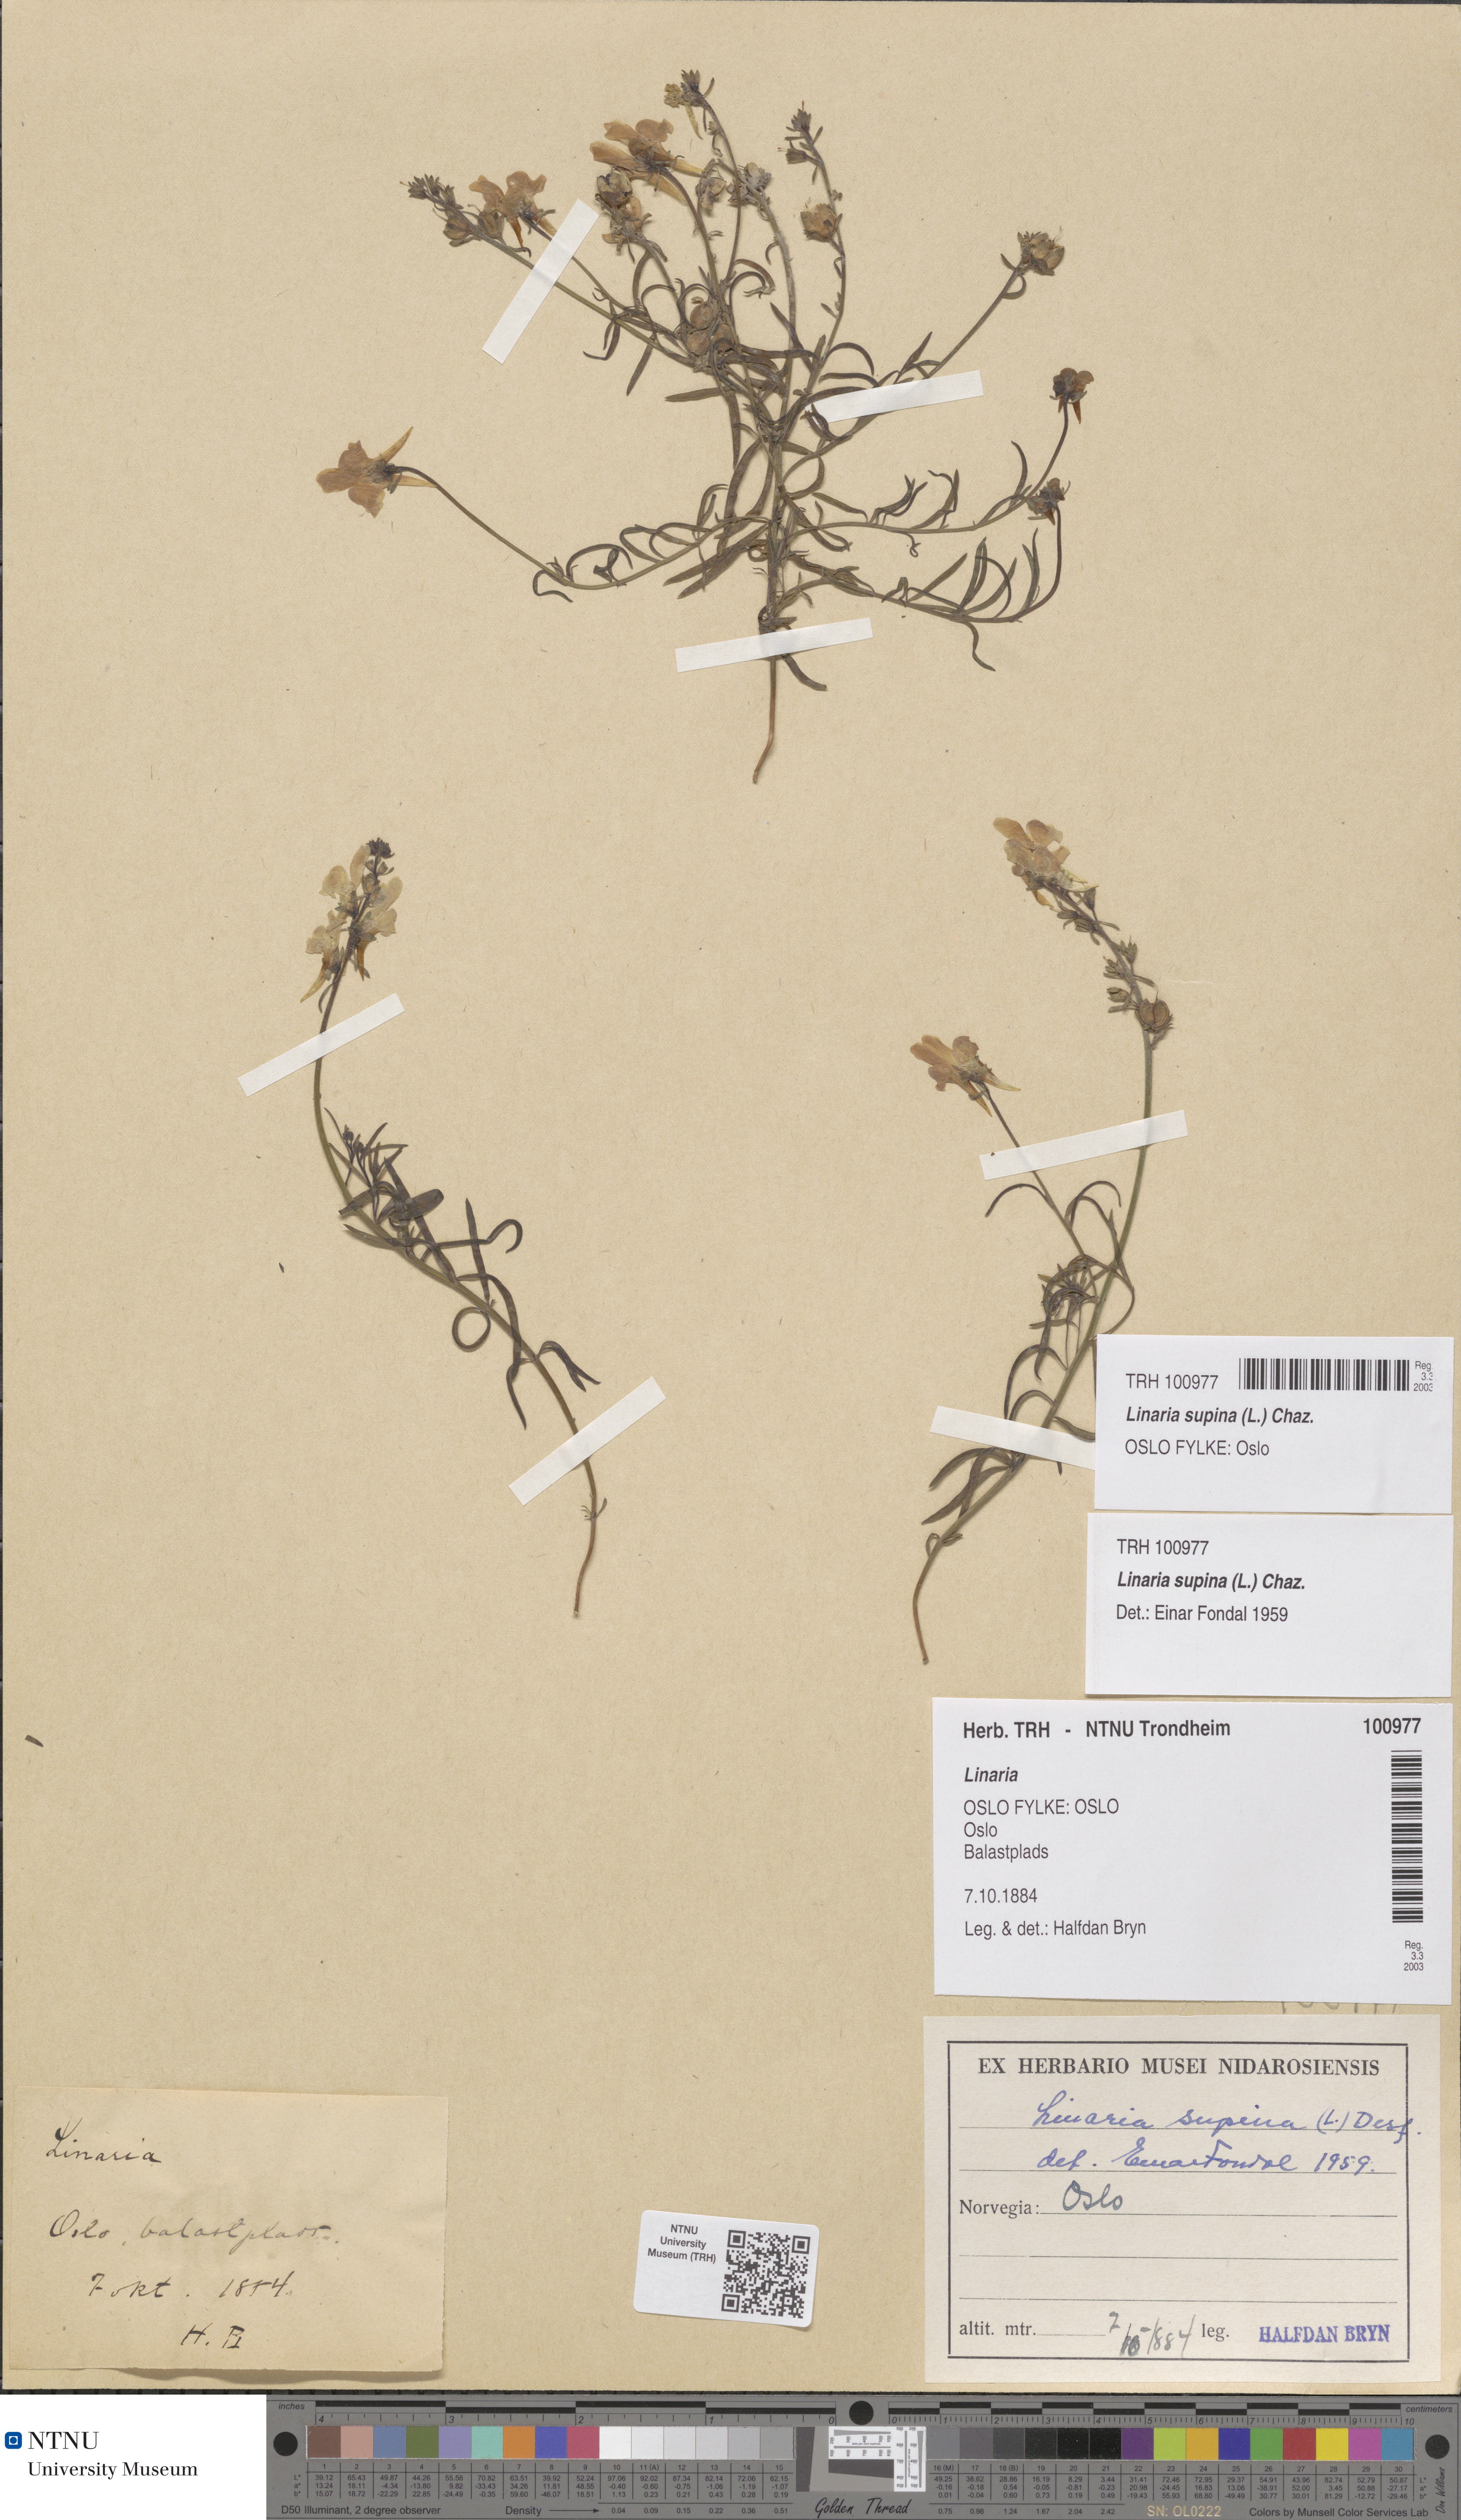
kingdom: Plantae
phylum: Tracheophyta
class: Magnoliopsida
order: Lamiales
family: Plantaginaceae
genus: Linaria
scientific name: Linaria supina
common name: Prostrate toadflax
